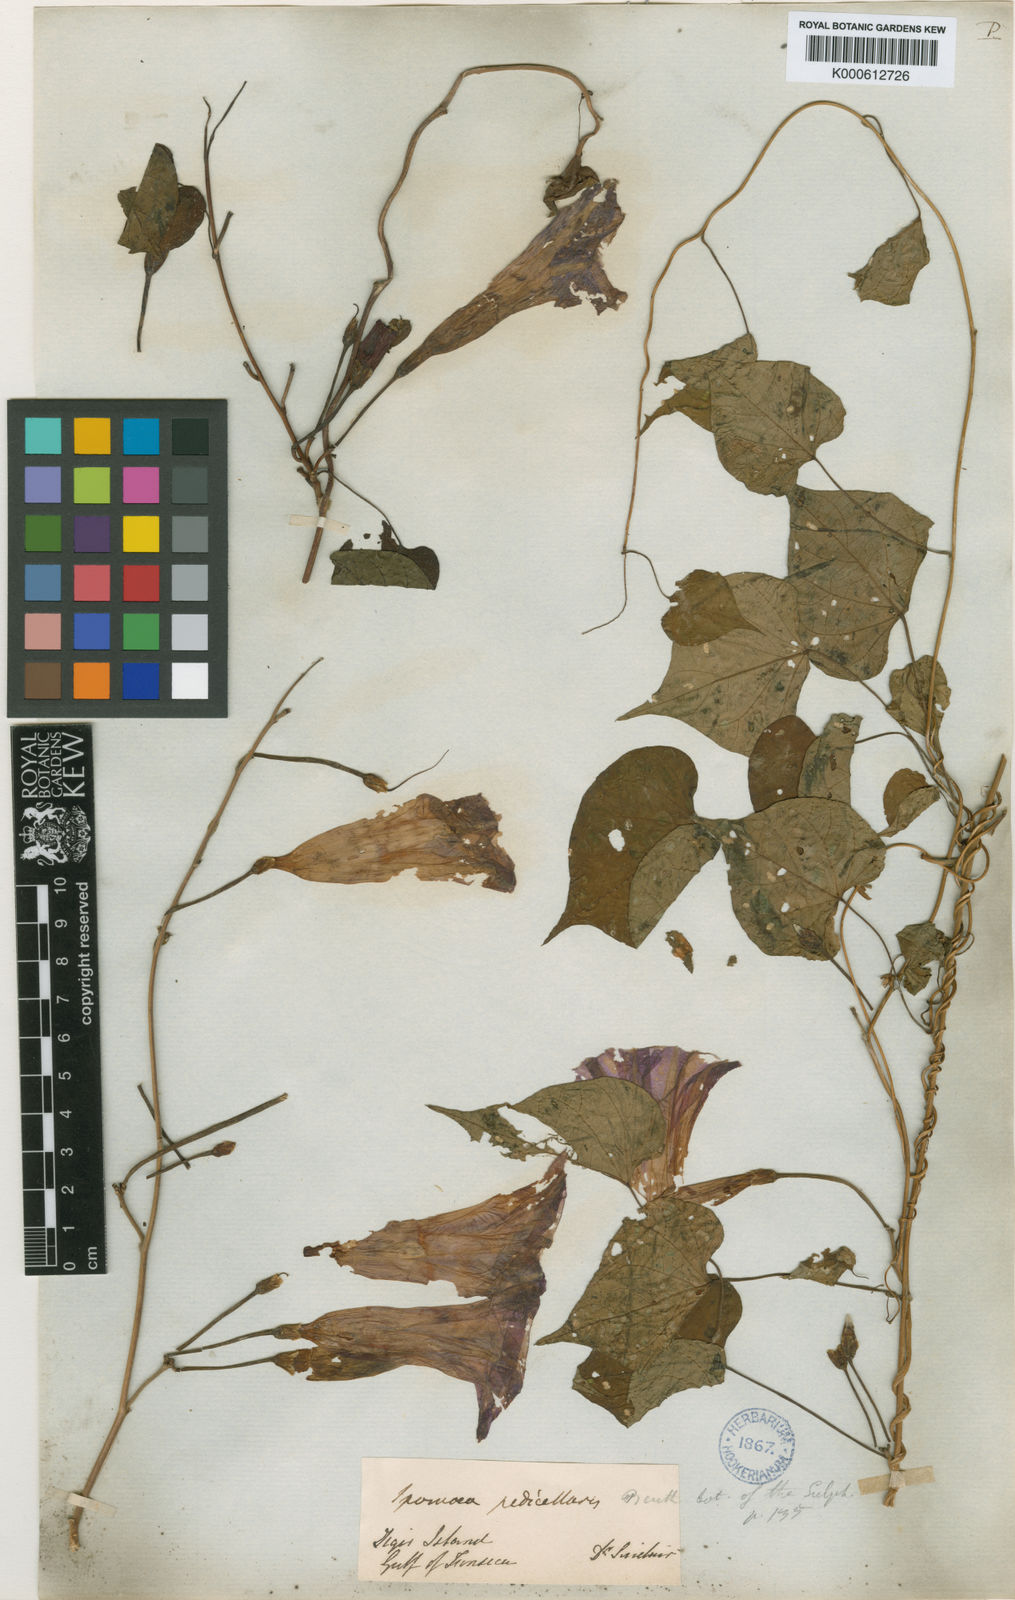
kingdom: Plantae
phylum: Tracheophyta
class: Magnoliopsida
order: Solanales
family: Convolvulaceae
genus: Ipomoea
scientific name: Ipomoea pedicellaris
